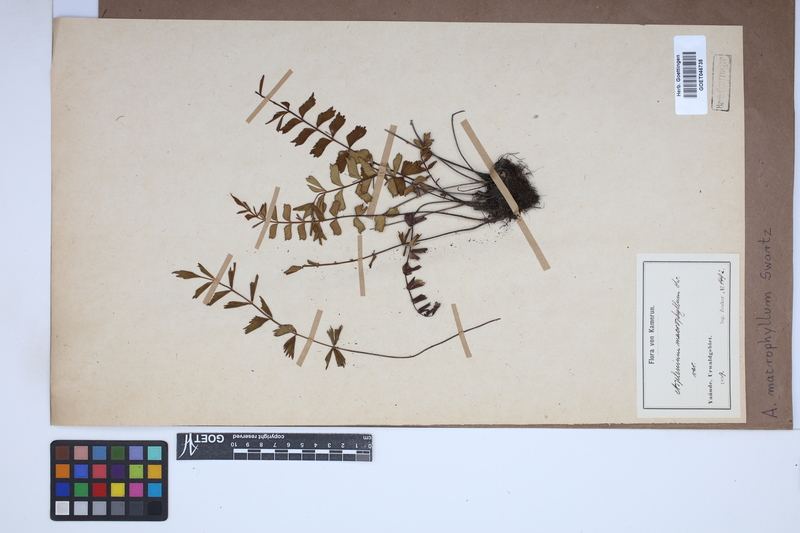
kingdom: Plantae
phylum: Tracheophyta
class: Polypodiopsida
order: Polypodiales
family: Aspleniaceae
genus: Asplenium
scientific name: Asplenium macrophyllum
